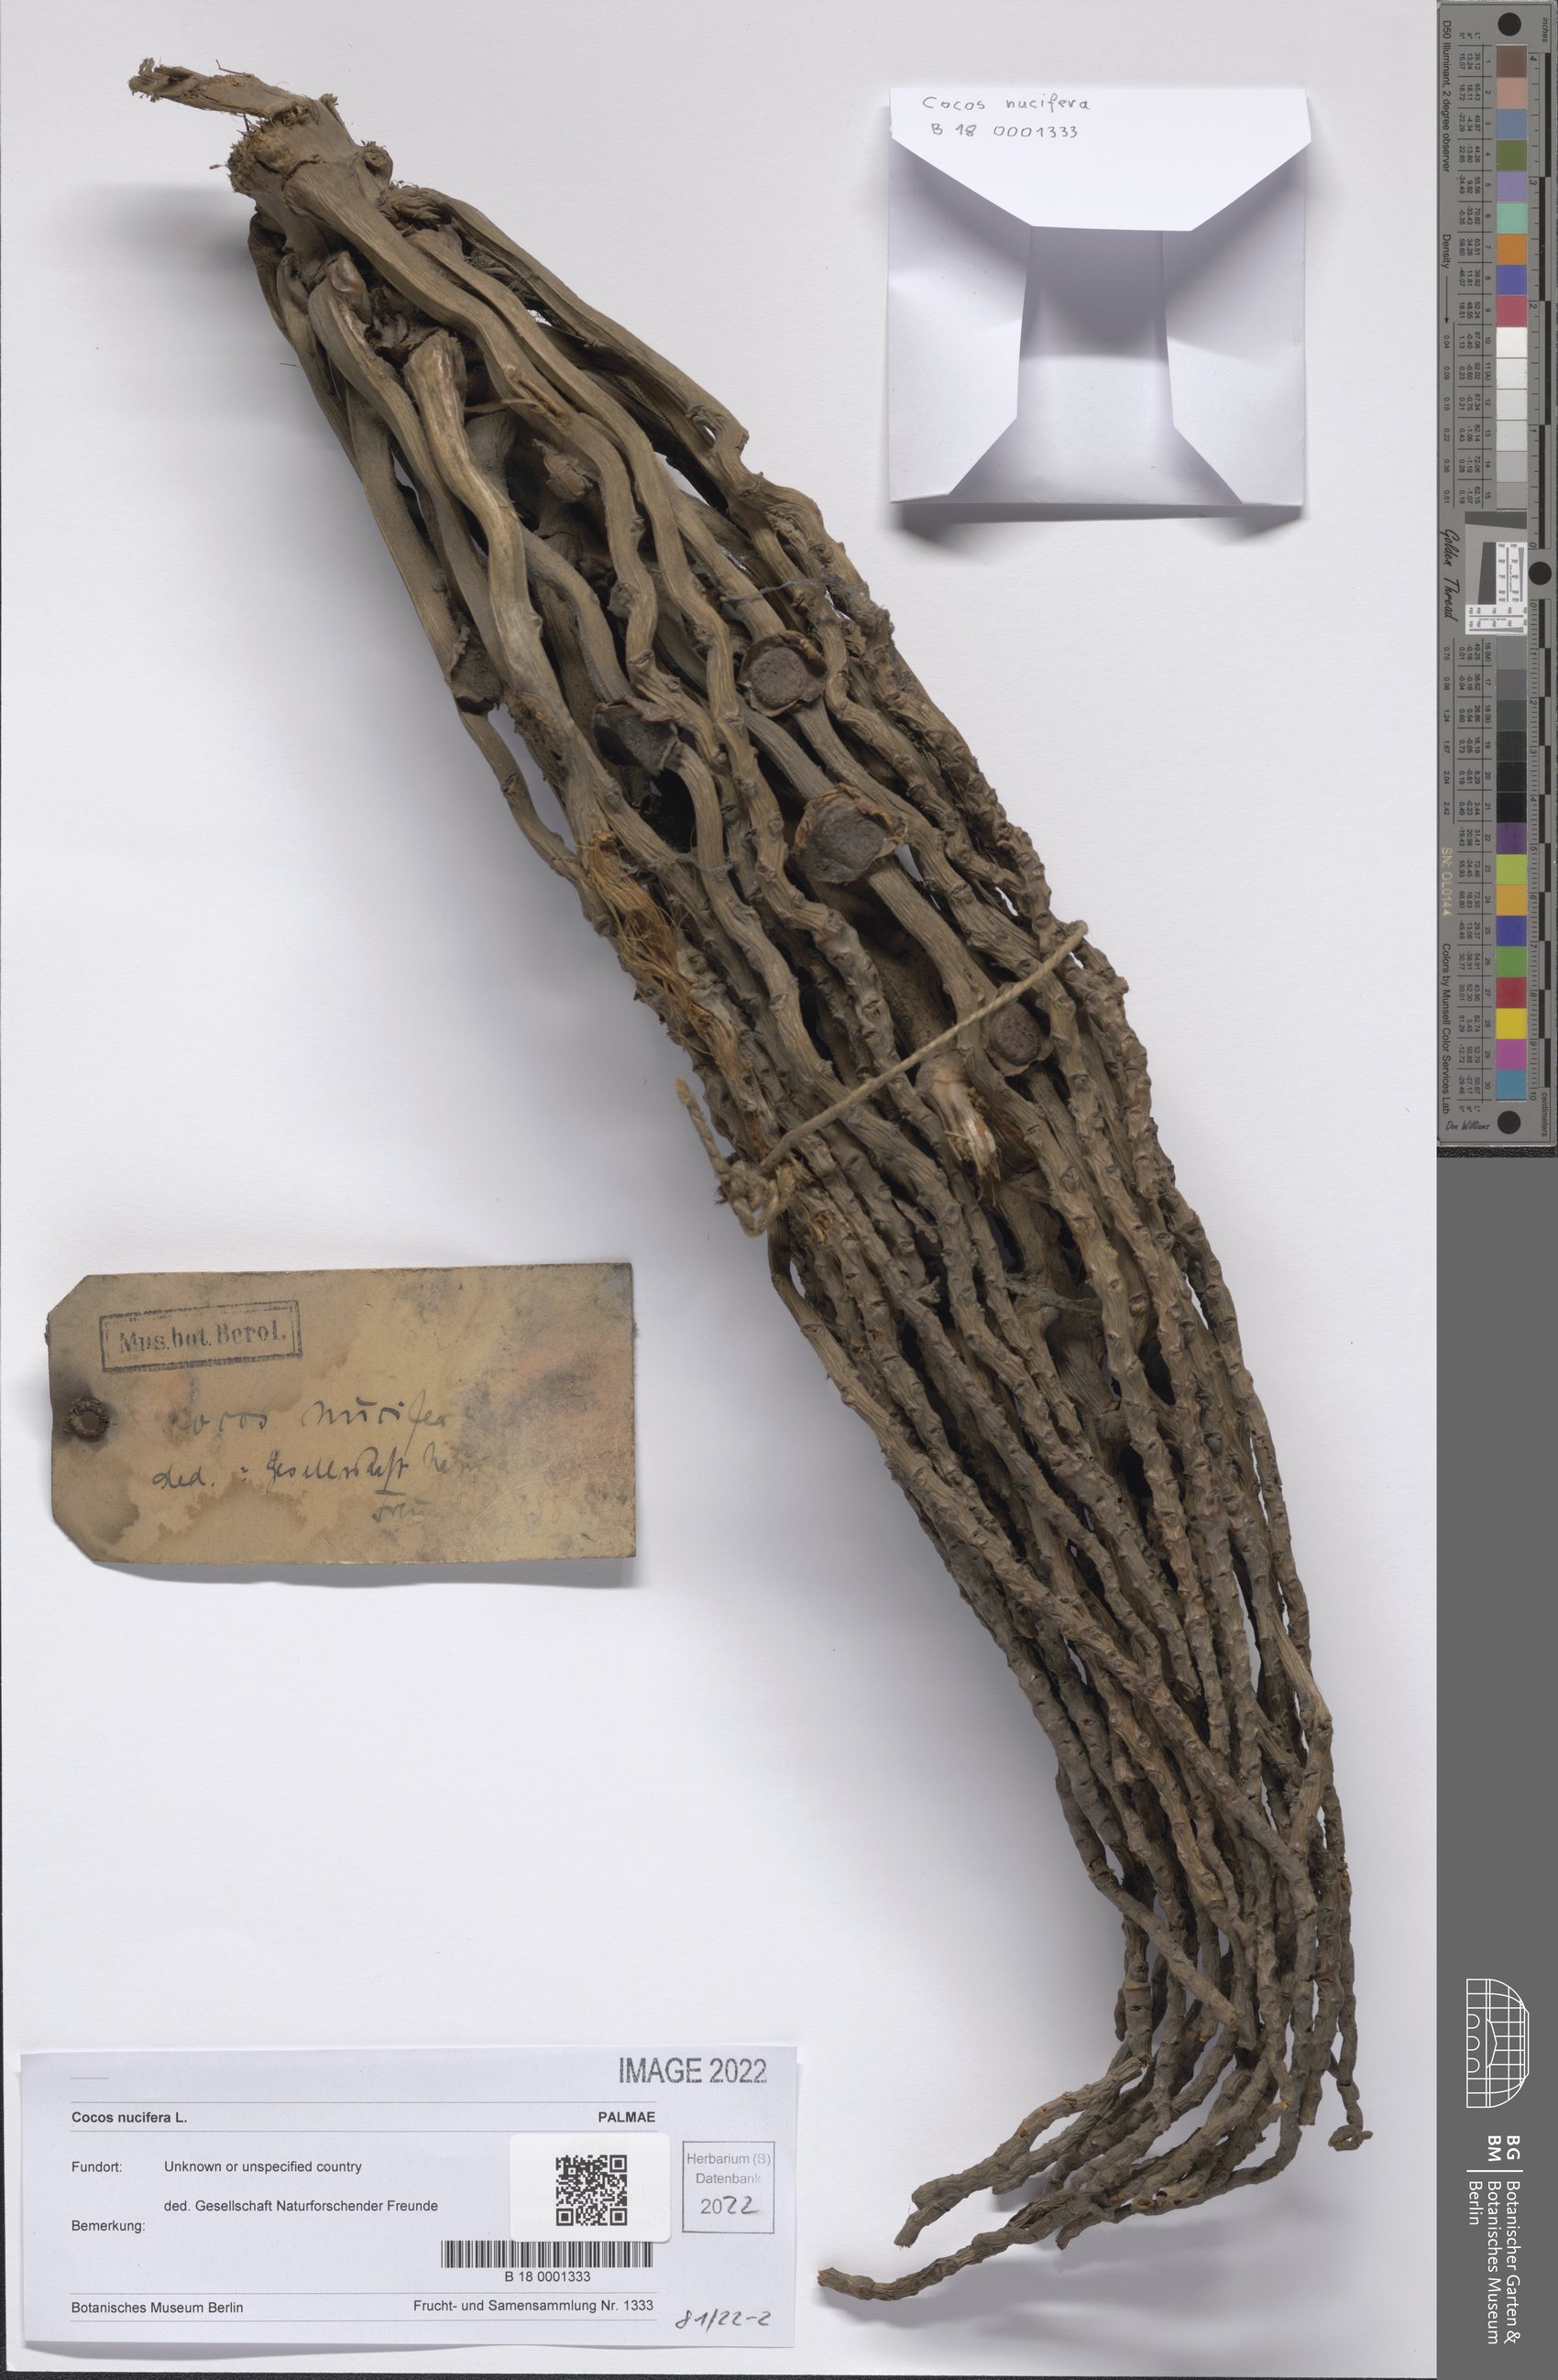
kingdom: Plantae
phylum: Tracheophyta
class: Liliopsida
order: Arecales
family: Arecaceae
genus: Cocos
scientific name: Cocos nucifera
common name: Coconut palm
